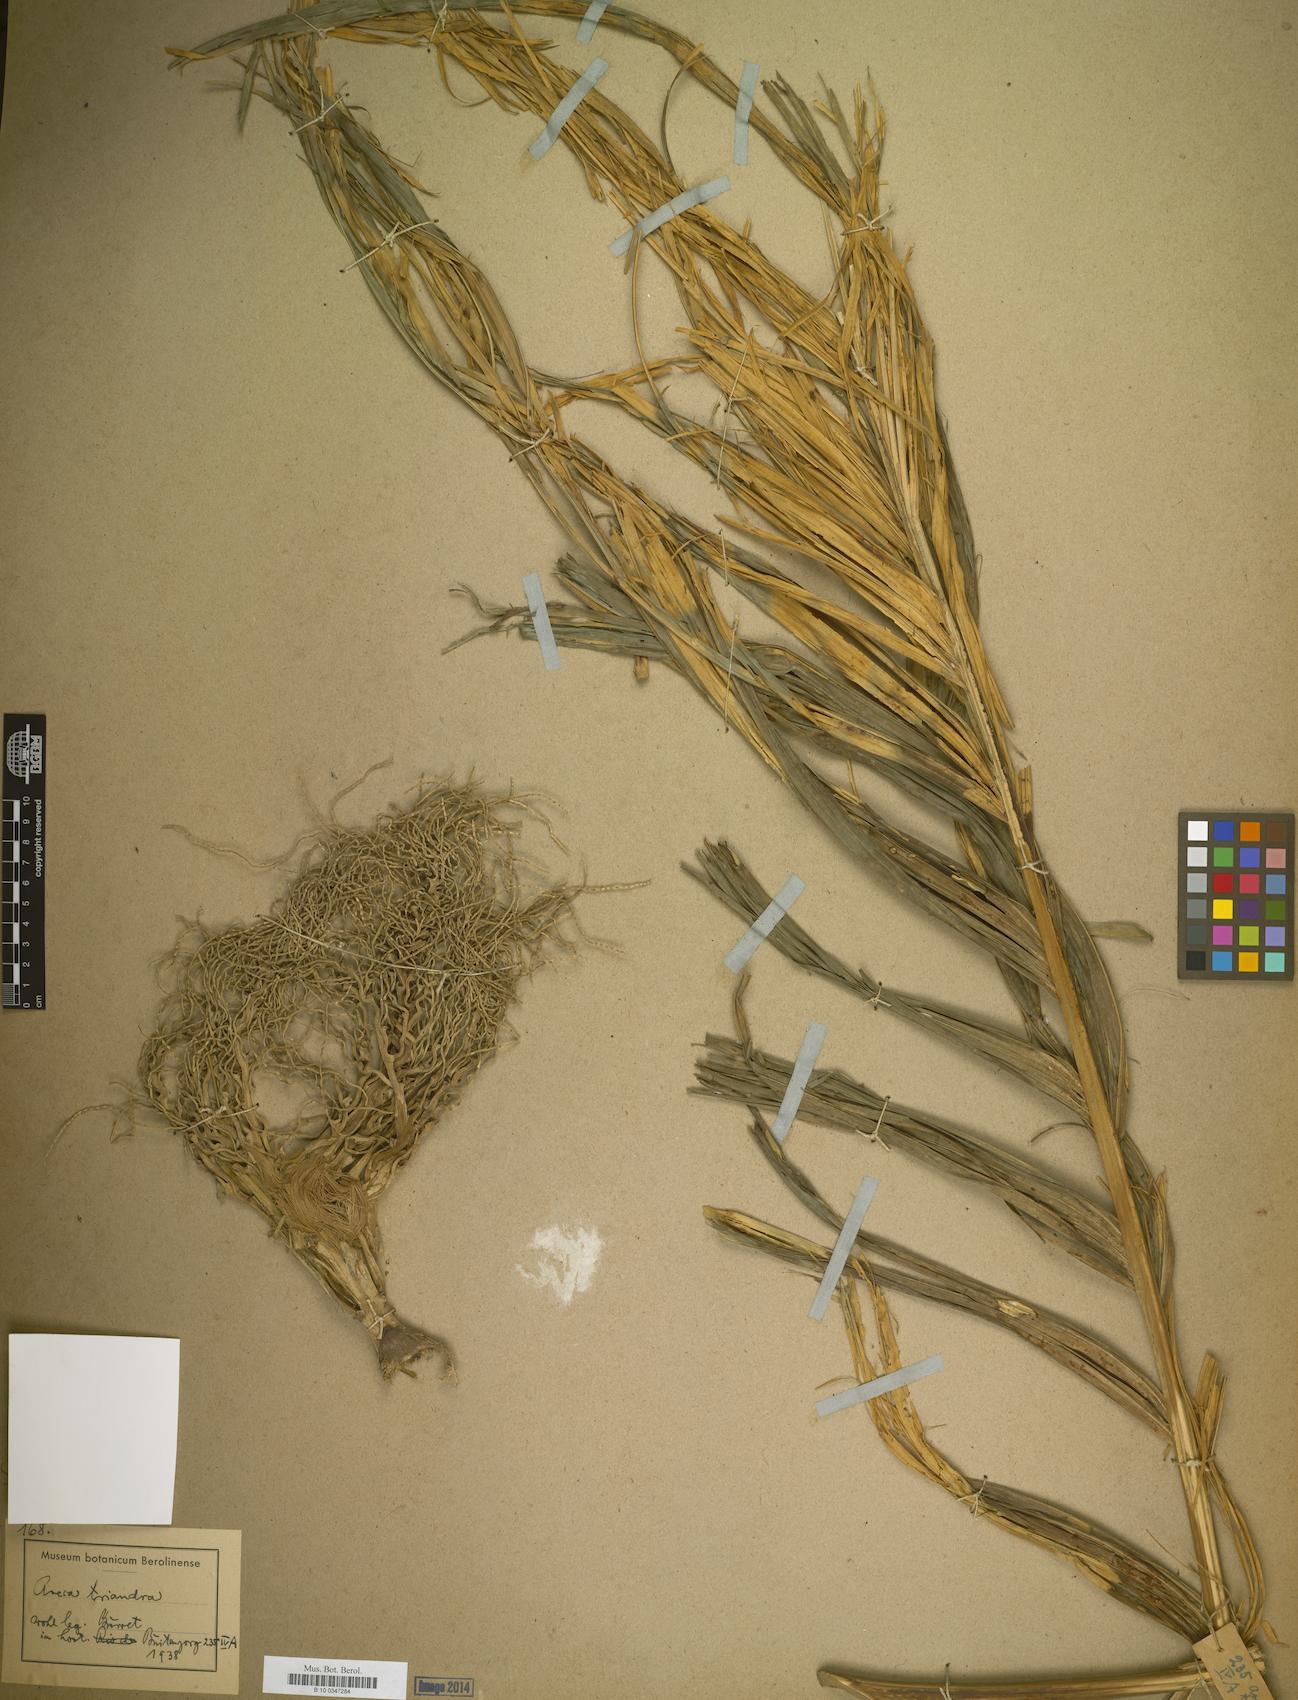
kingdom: Plantae
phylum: Tracheophyta
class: Liliopsida
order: Arecales
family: Arecaceae
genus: Areca
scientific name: Areca triandra
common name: Australian areca palm
